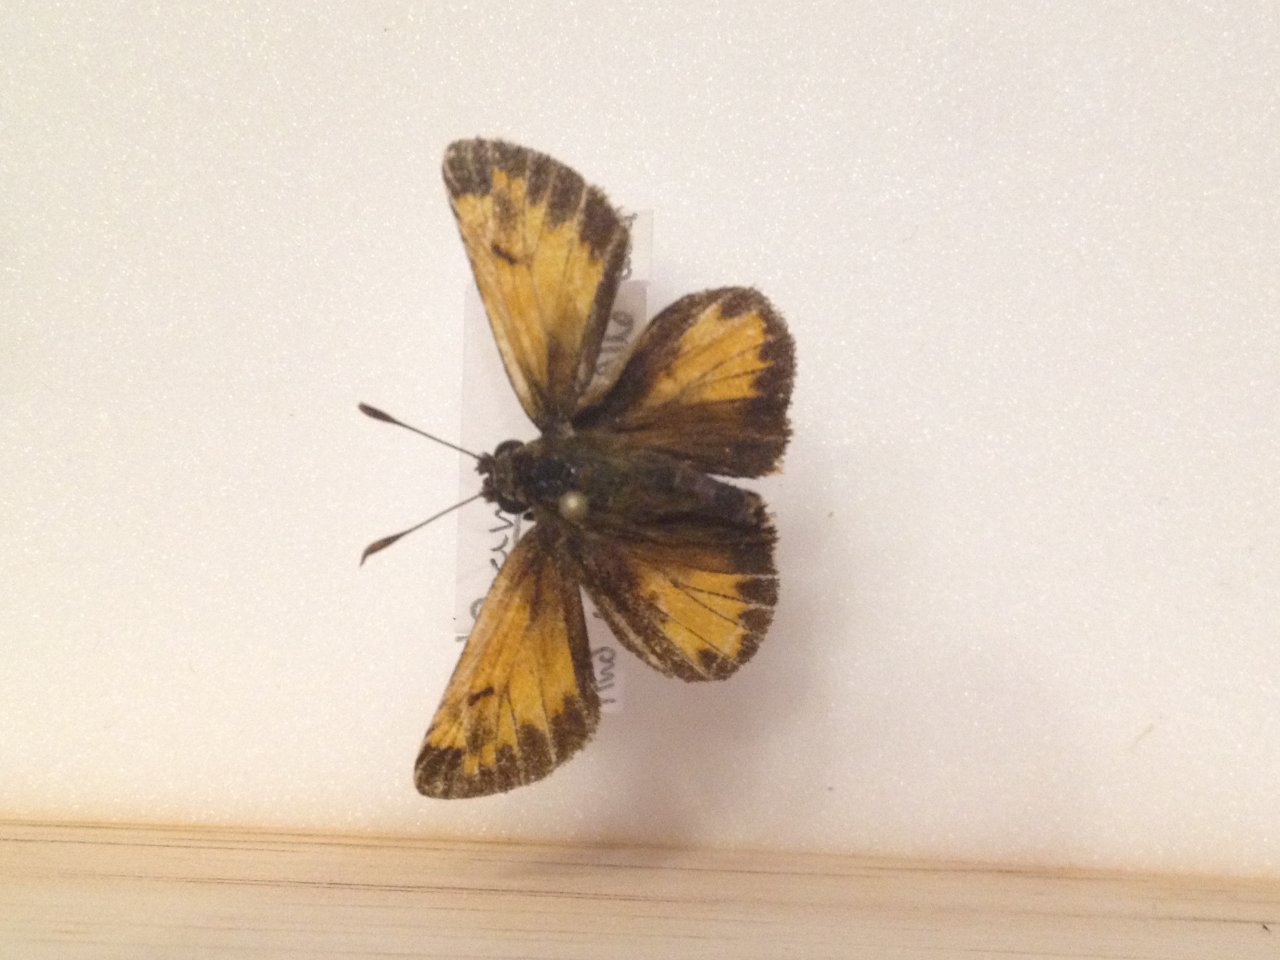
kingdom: Animalia
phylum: Arthropoda
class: Insecta
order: Lepidoptera
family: Hesperiidae
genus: Lon
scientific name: Lon hobomok
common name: Hobomok Skipper
